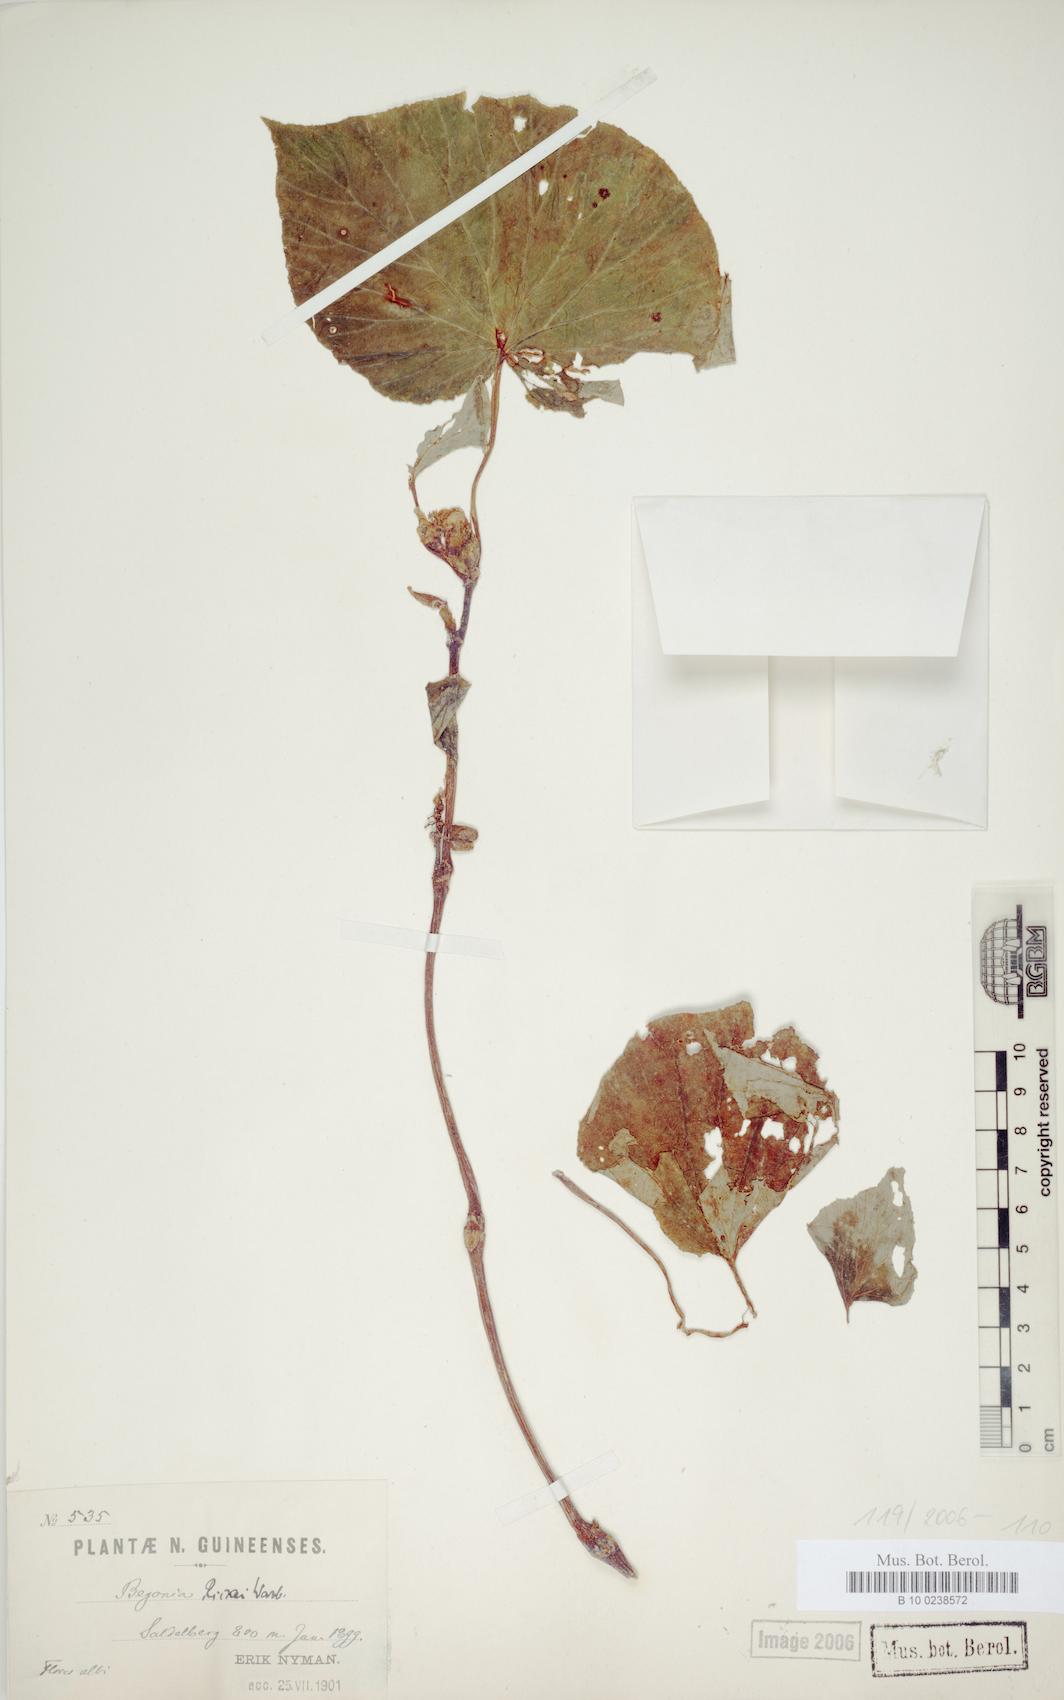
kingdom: Plantae
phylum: Tracheophyta
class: Magnoliopsida
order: Cucurbitales
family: Begoniaceae
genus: Begonia
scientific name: Begonia rieckei
